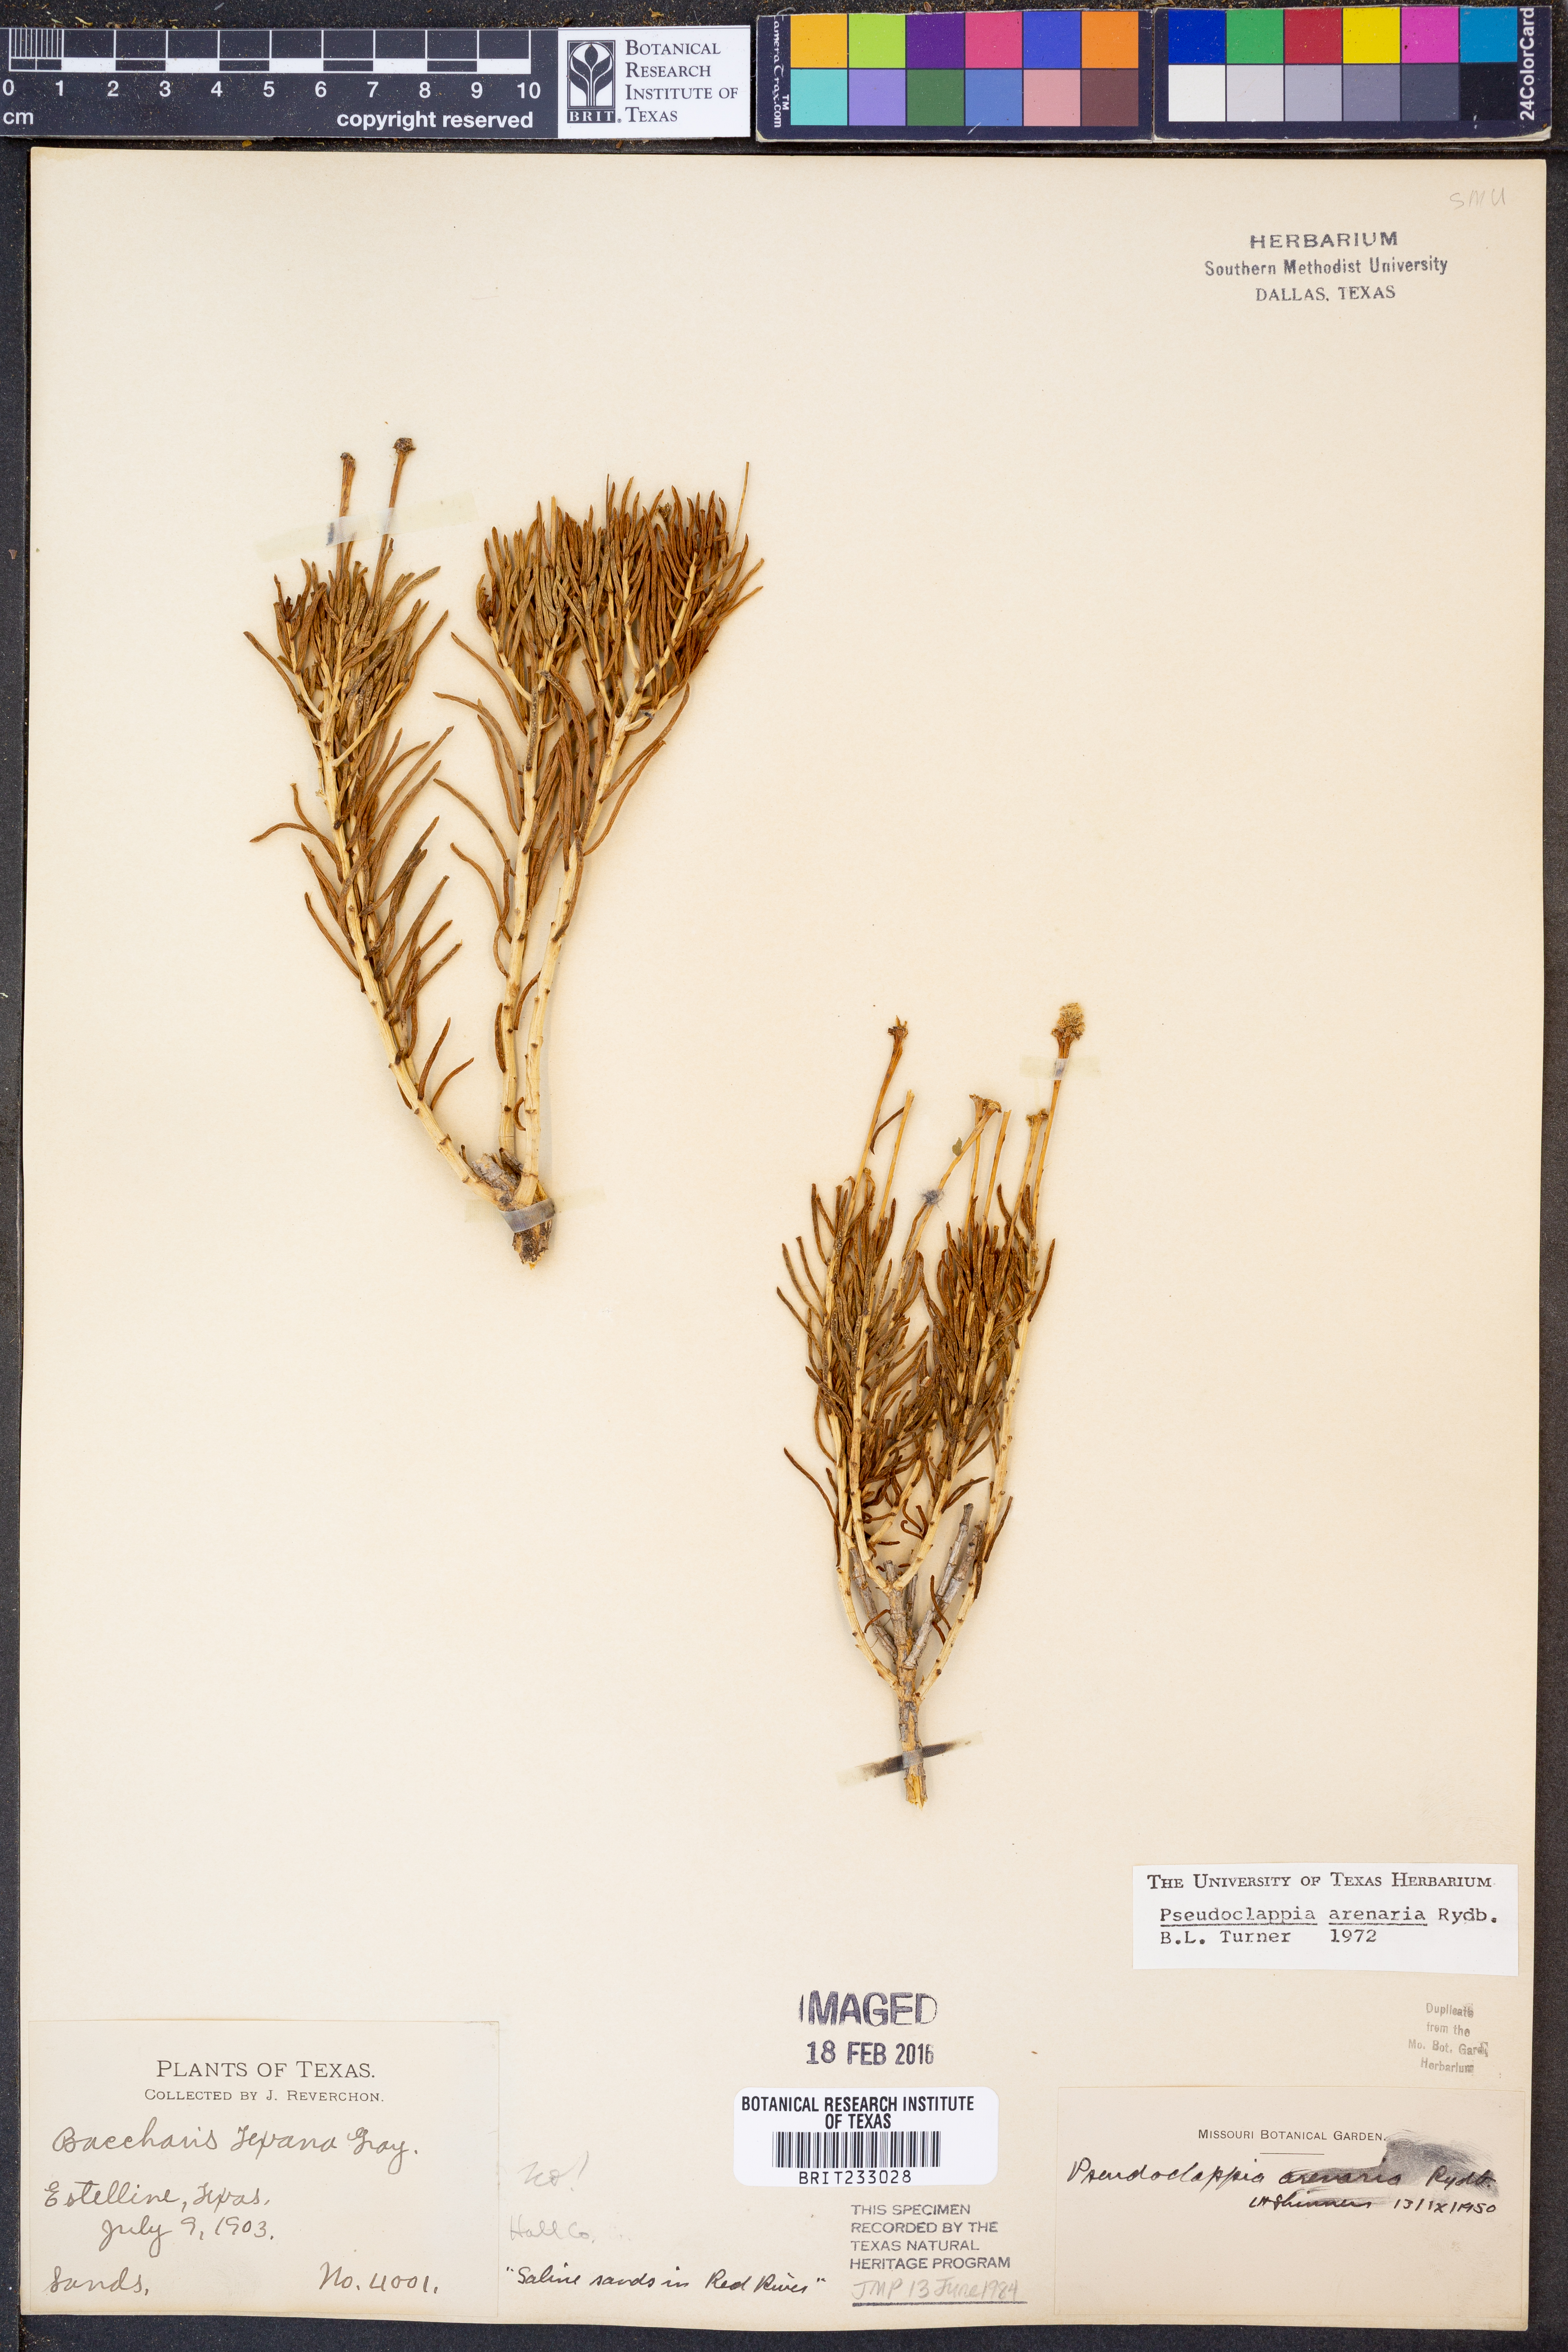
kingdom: Plantae
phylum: Tracheophyta
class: Magnoliopsida
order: Asterales
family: Asteraceae
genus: Pseudoclappia
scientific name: Pseudoclappia arenaria
